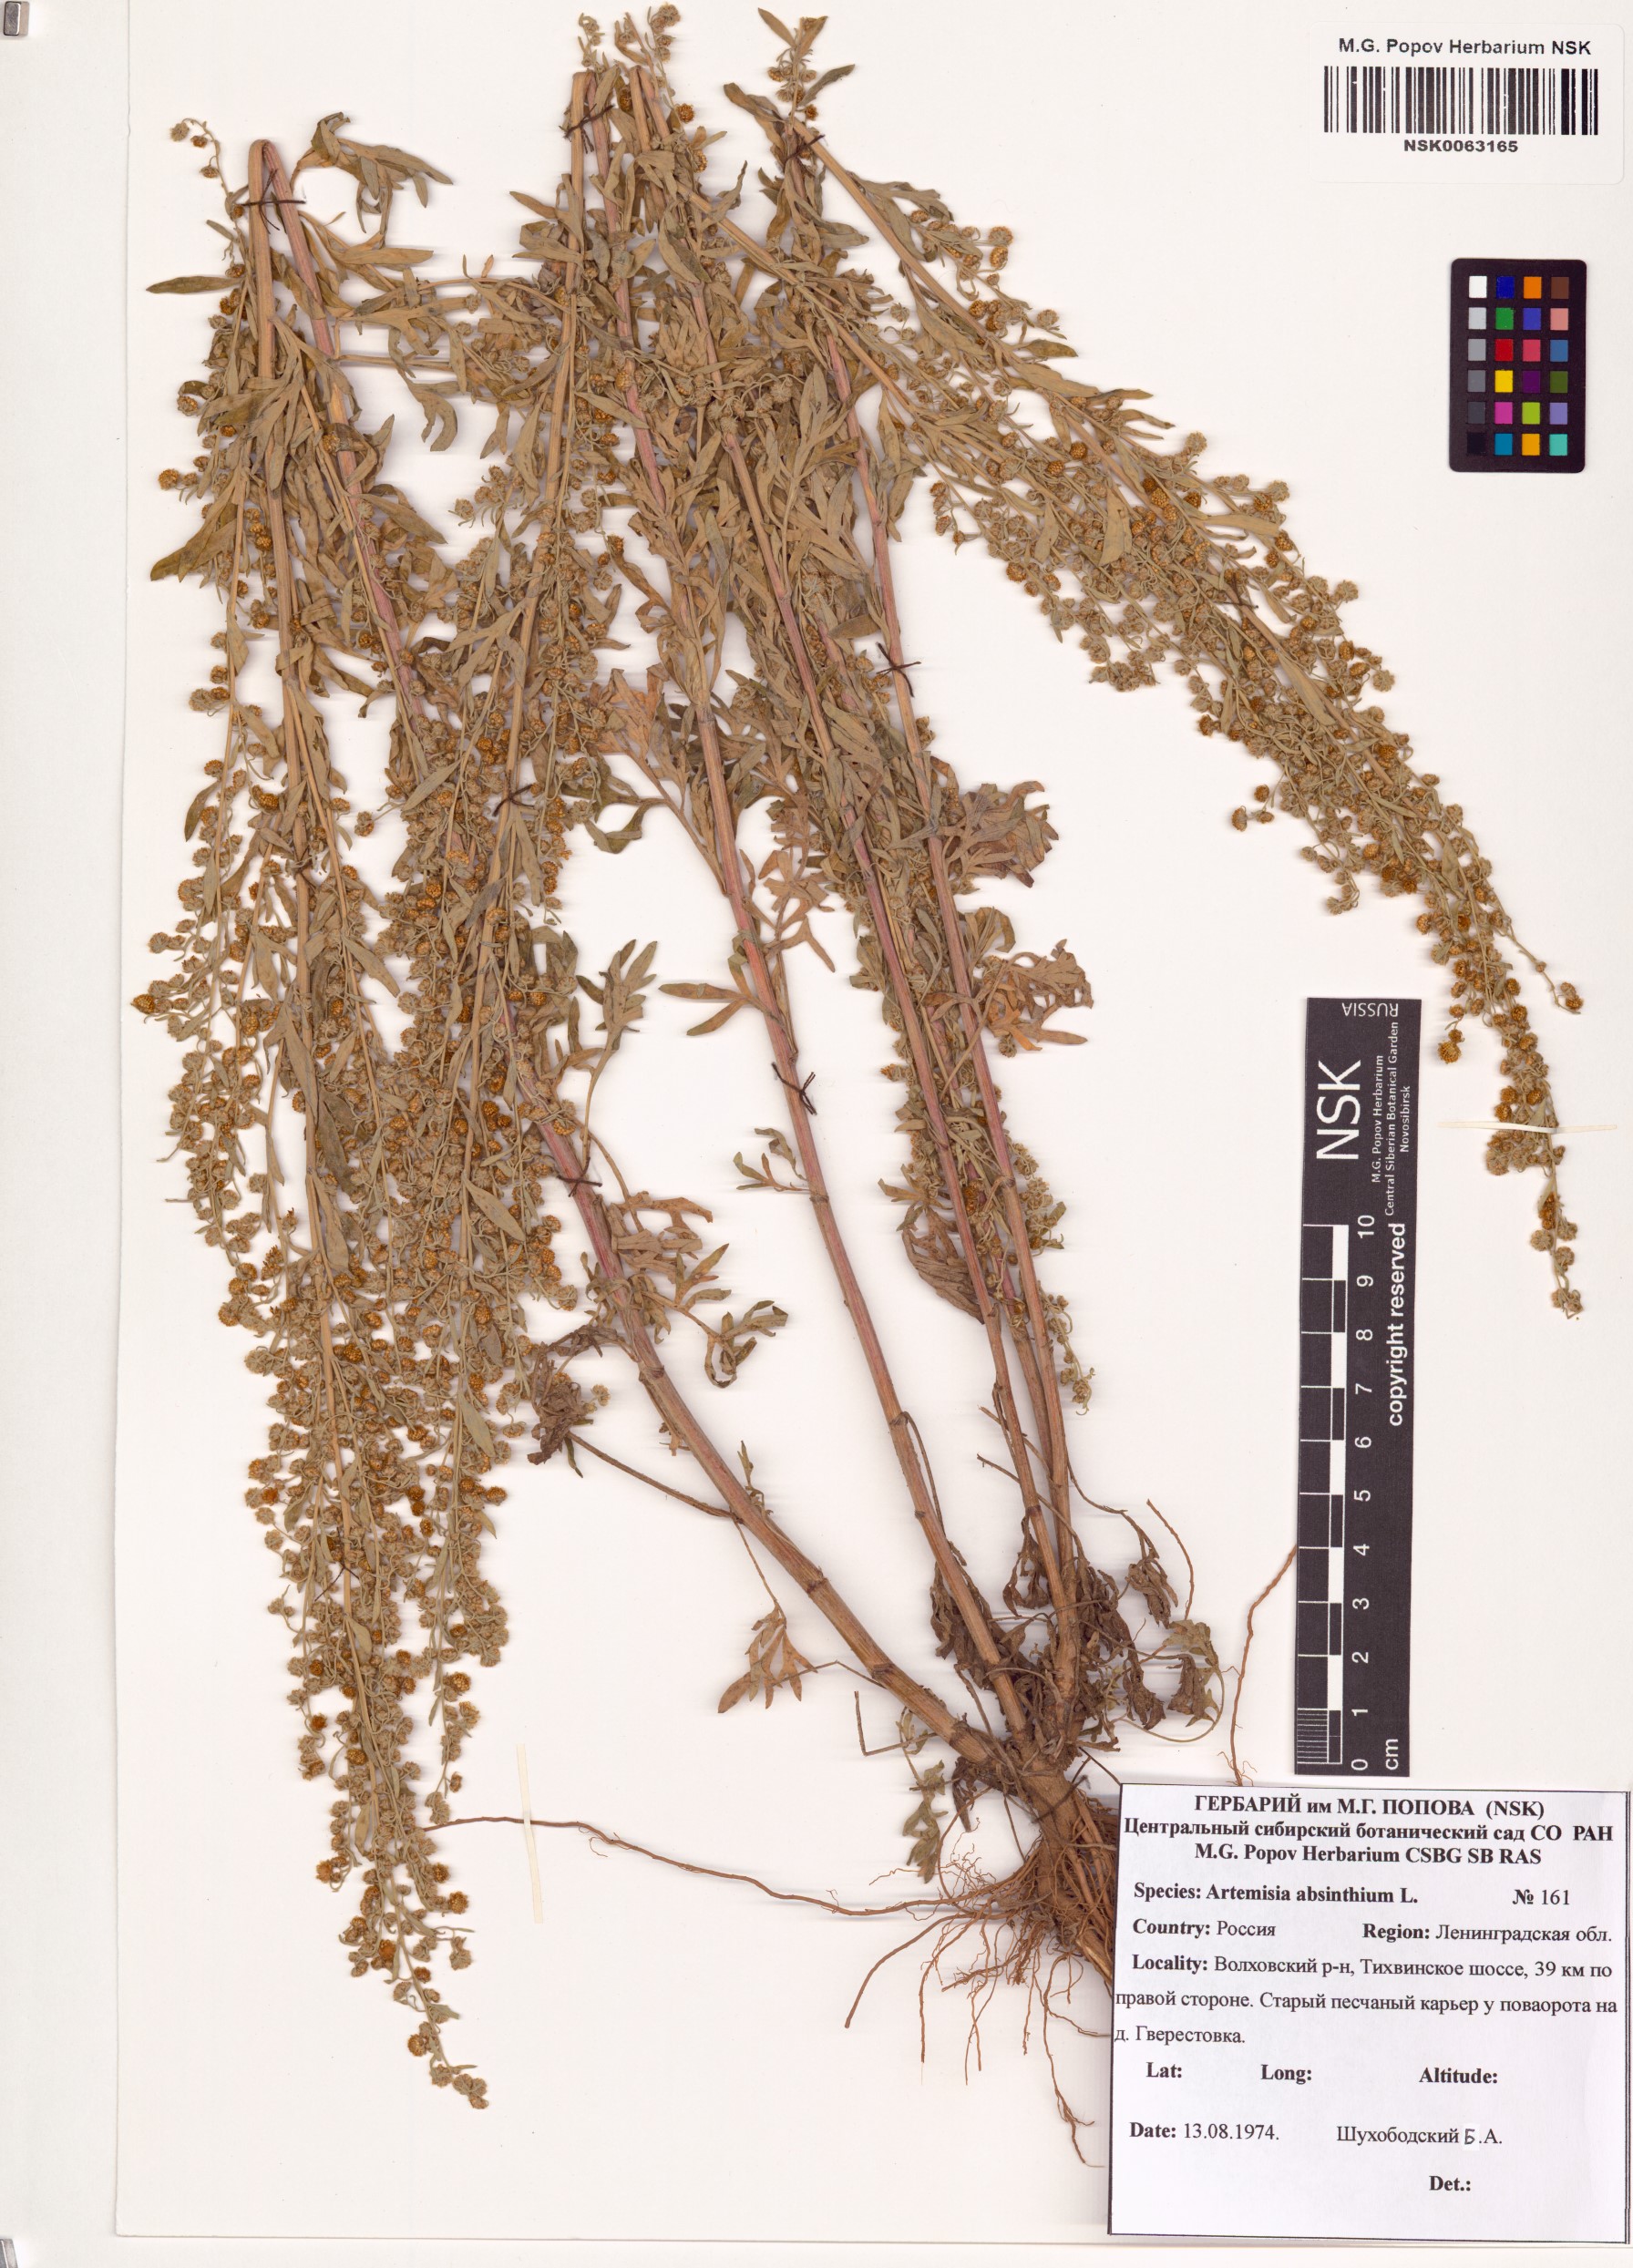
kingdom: Plantae
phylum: Tracheophyta
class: Magnoliopsida
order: Asterales
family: Asteraceae
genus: Artemisia
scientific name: Artemisia absinthium
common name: Wormwood
